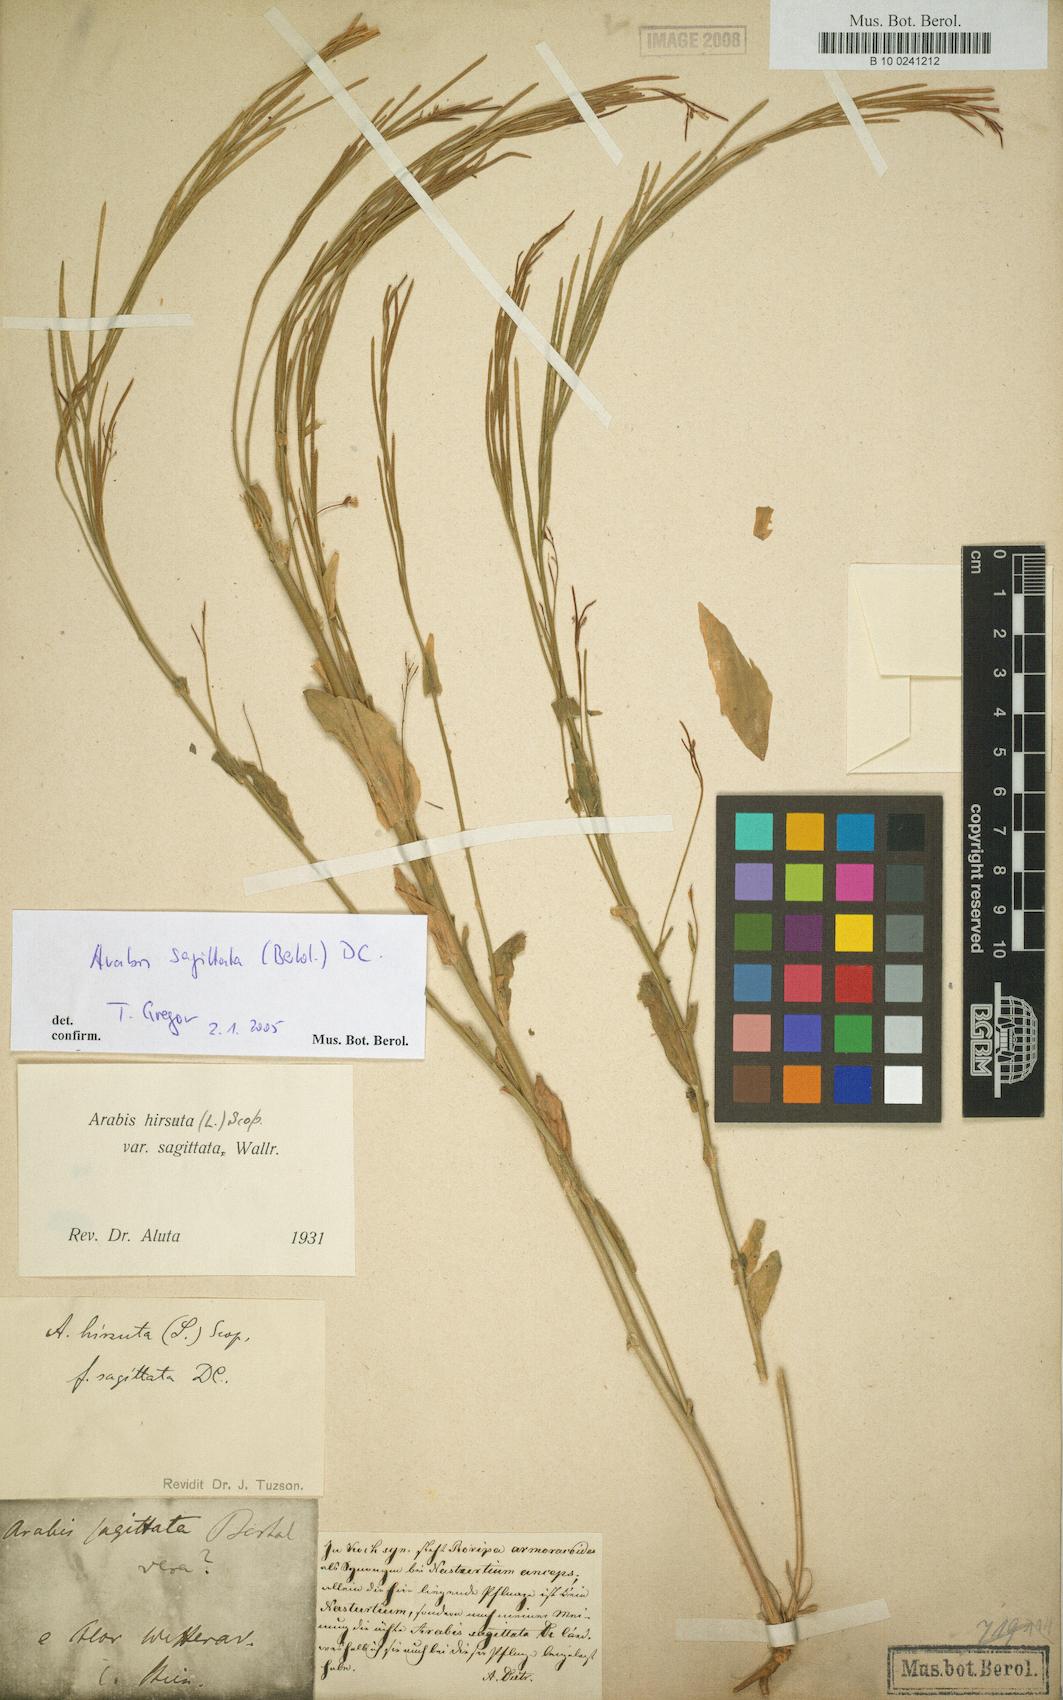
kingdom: Plantae
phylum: Tracheophyta
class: Magnoliopsida
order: Brassicales
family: Brassicaceae
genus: Arabis
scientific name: Arabis sagittata
